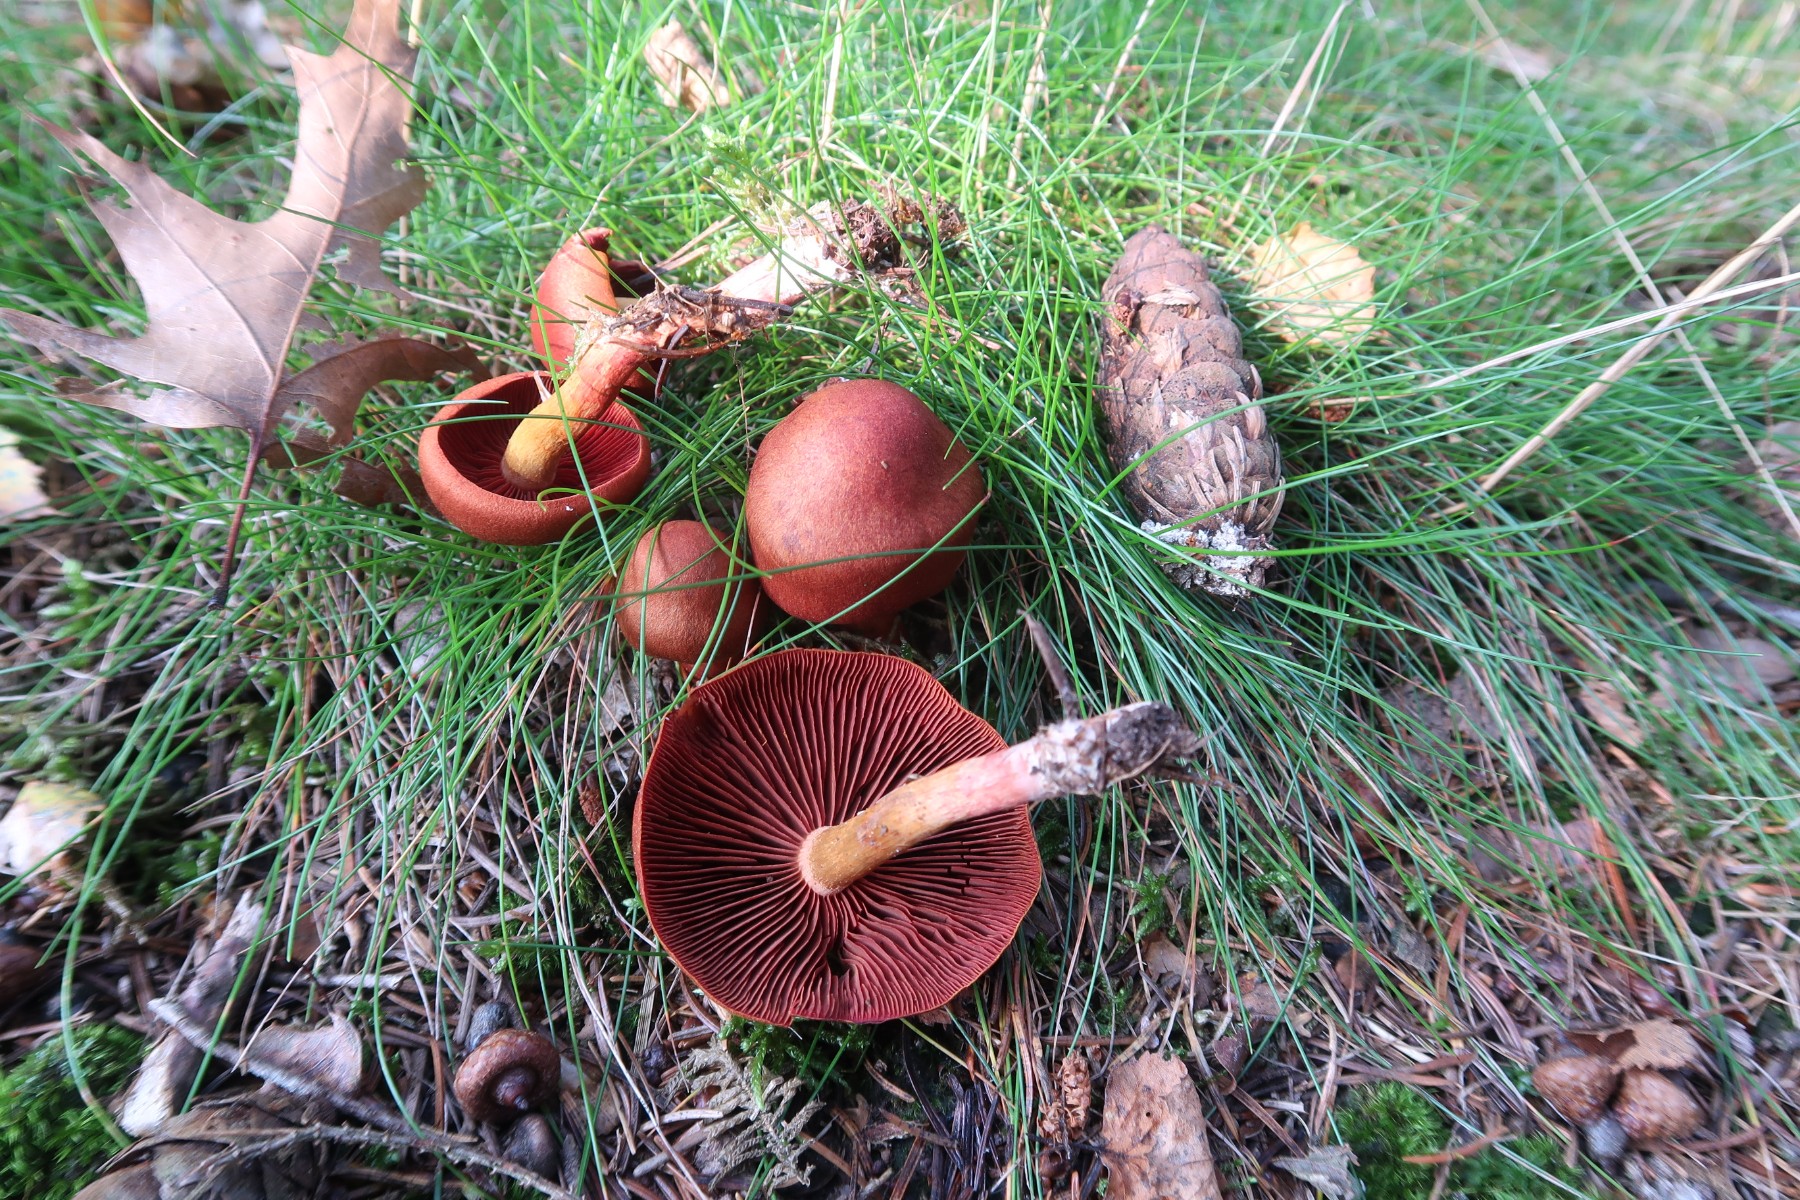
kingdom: Fungi
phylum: Basidiomycota
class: Agaricomycetes
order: Agaricales
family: Cortinariaceae
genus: Cortinarius
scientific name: Cortinarius purpureus
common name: brunrød slørhat
